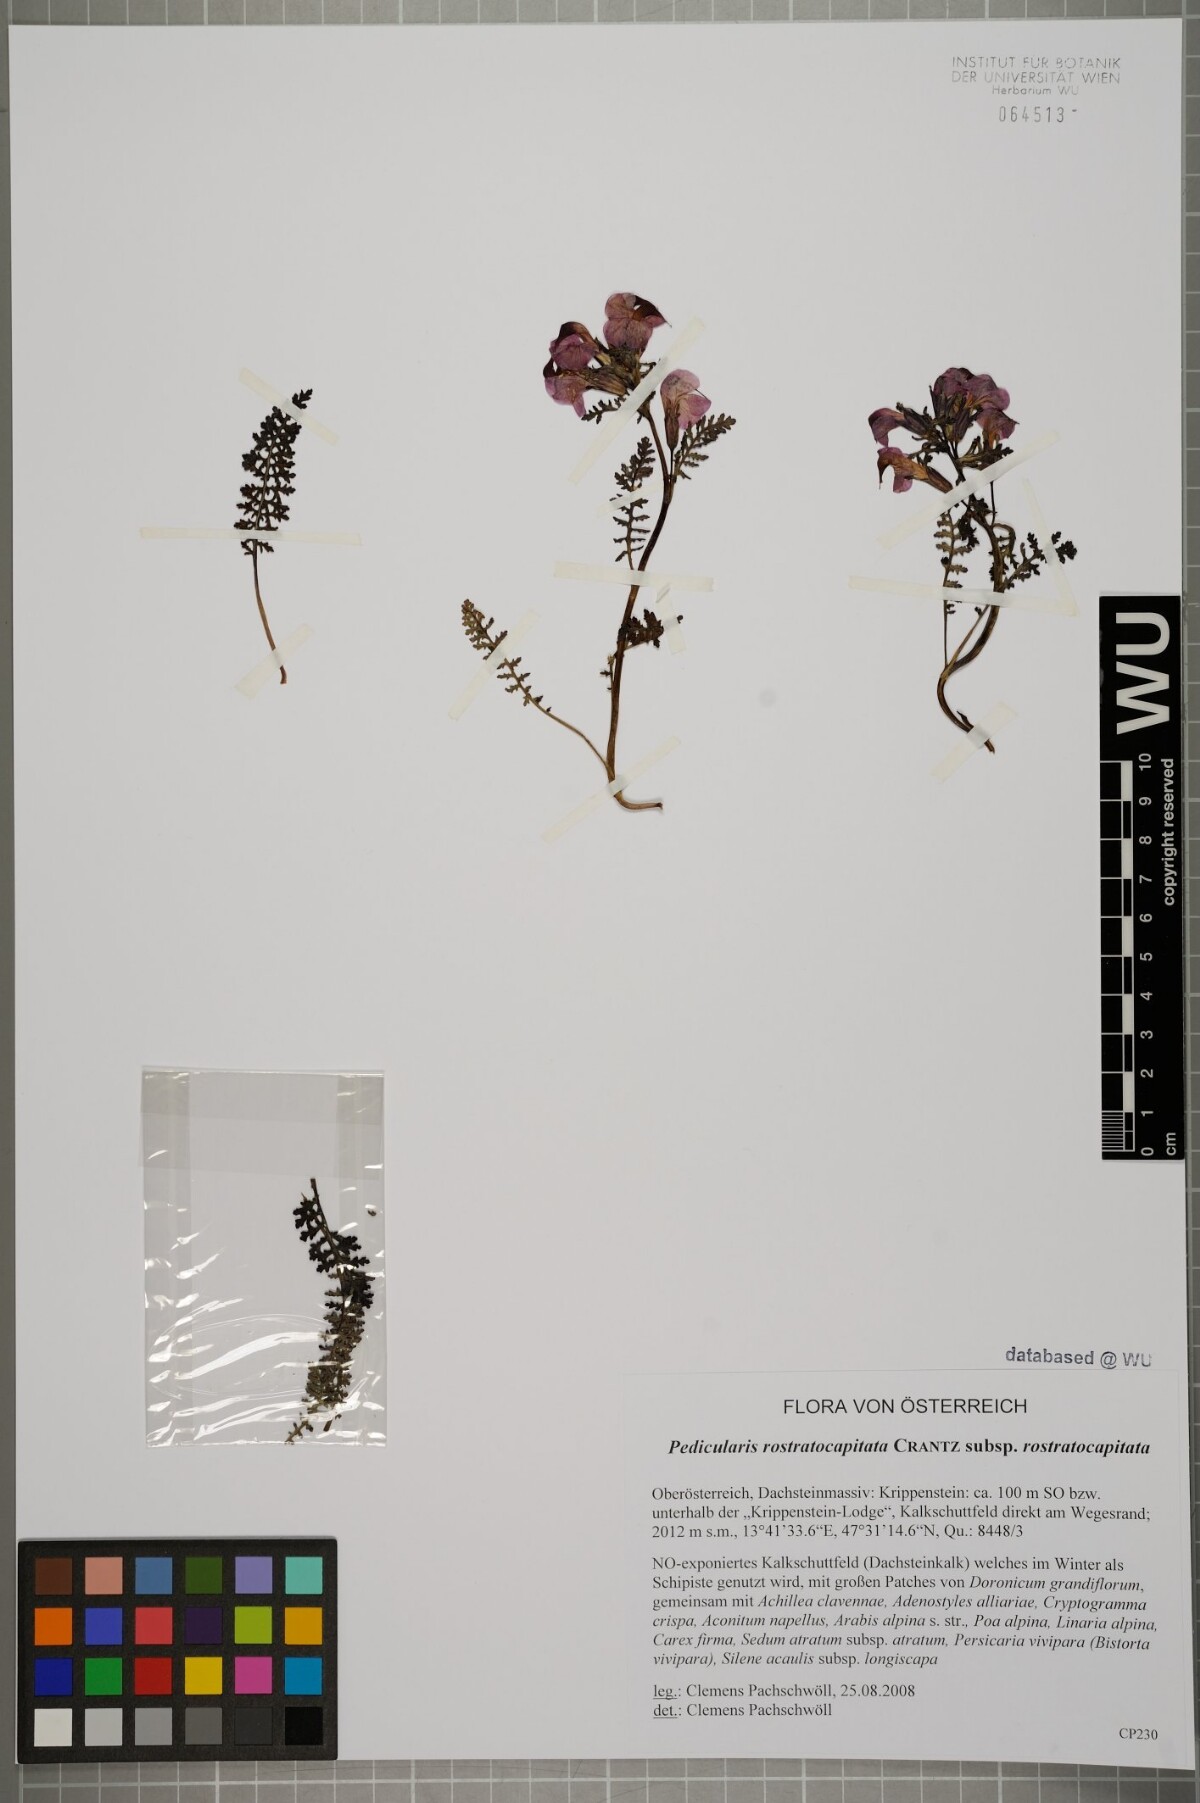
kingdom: Plantae
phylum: Tracheophyta
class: Magnoliopsida
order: Lamiales
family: Orobanchaceae
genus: Pedicularis
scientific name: Pedicularis rostratocapitata
